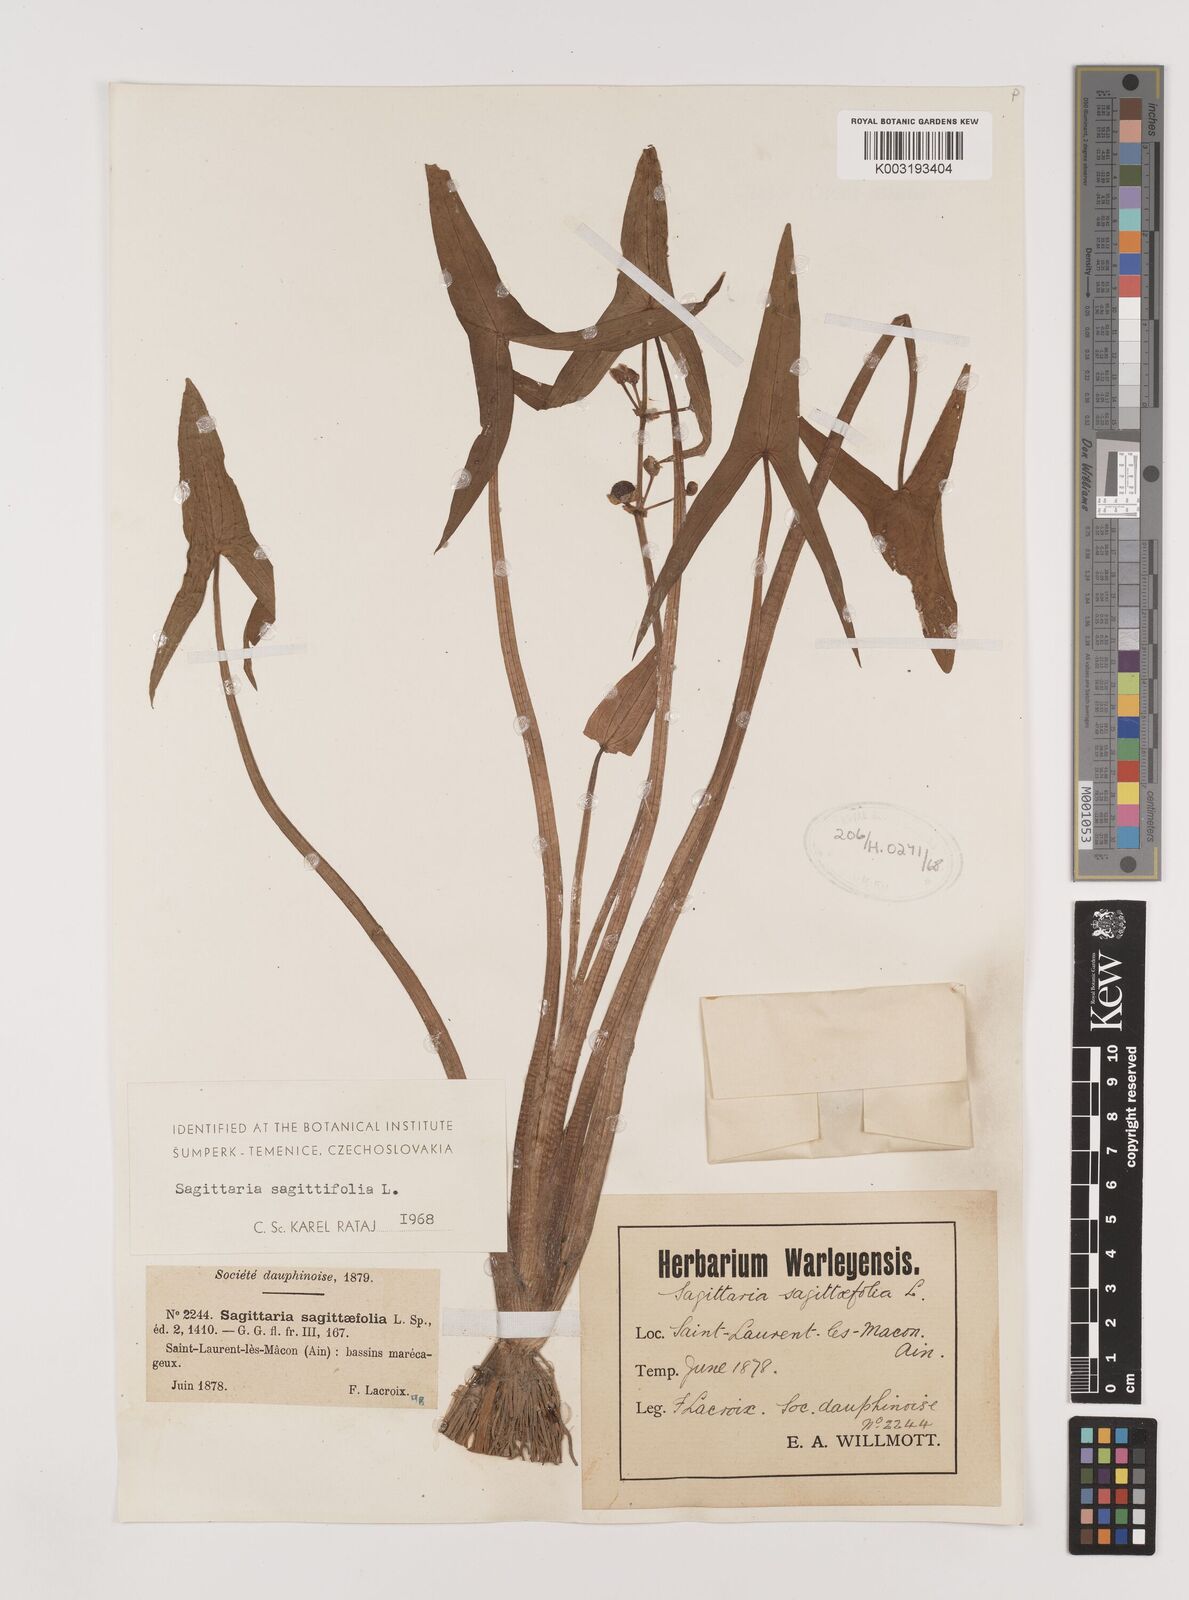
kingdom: Plantae
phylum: Tracheophyta
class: Liliopsida
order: Alismatales
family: Alismataceae
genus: Sagittaria
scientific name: Sagittaria sagittifolia
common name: Arrowhead
